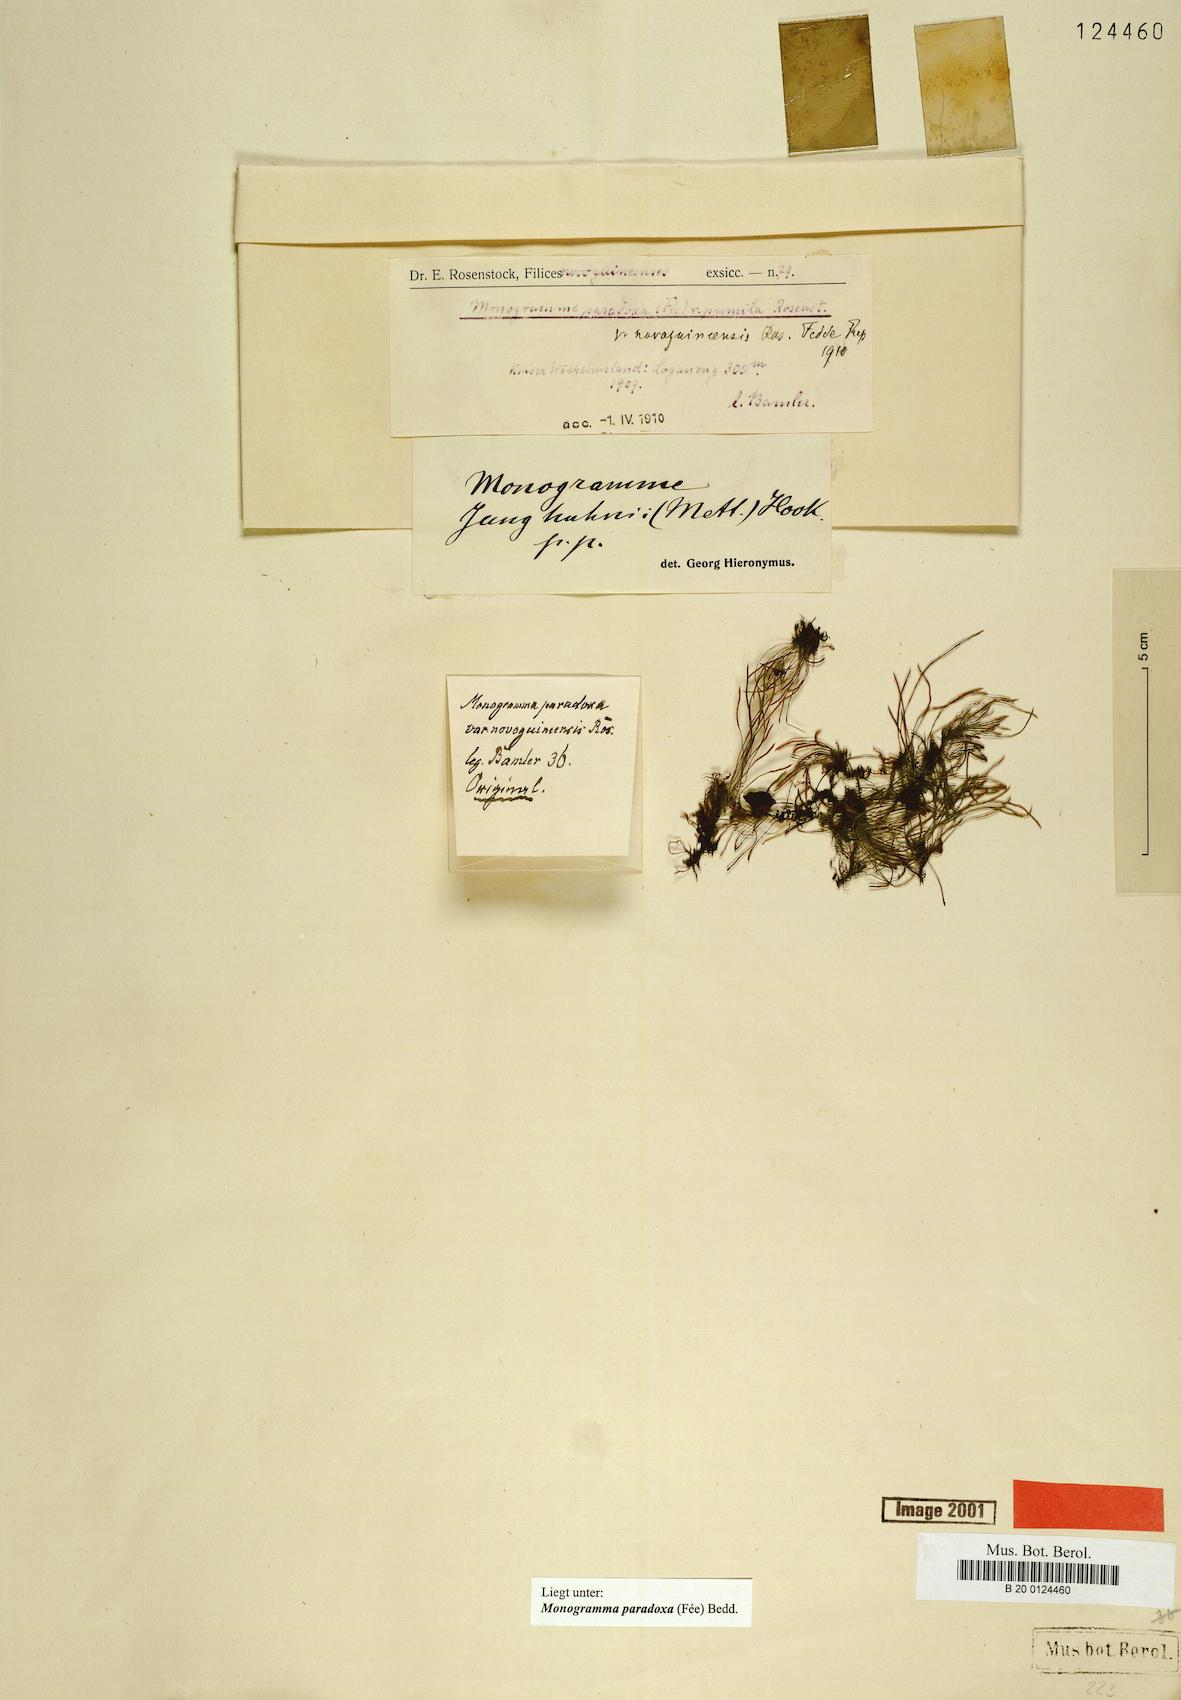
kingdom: Plantae
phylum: Tracheophyta
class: Polypodiopsida
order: Polypodiales
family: Pteridaceae
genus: Vaginularia
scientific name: Vaginularia paradoxa
